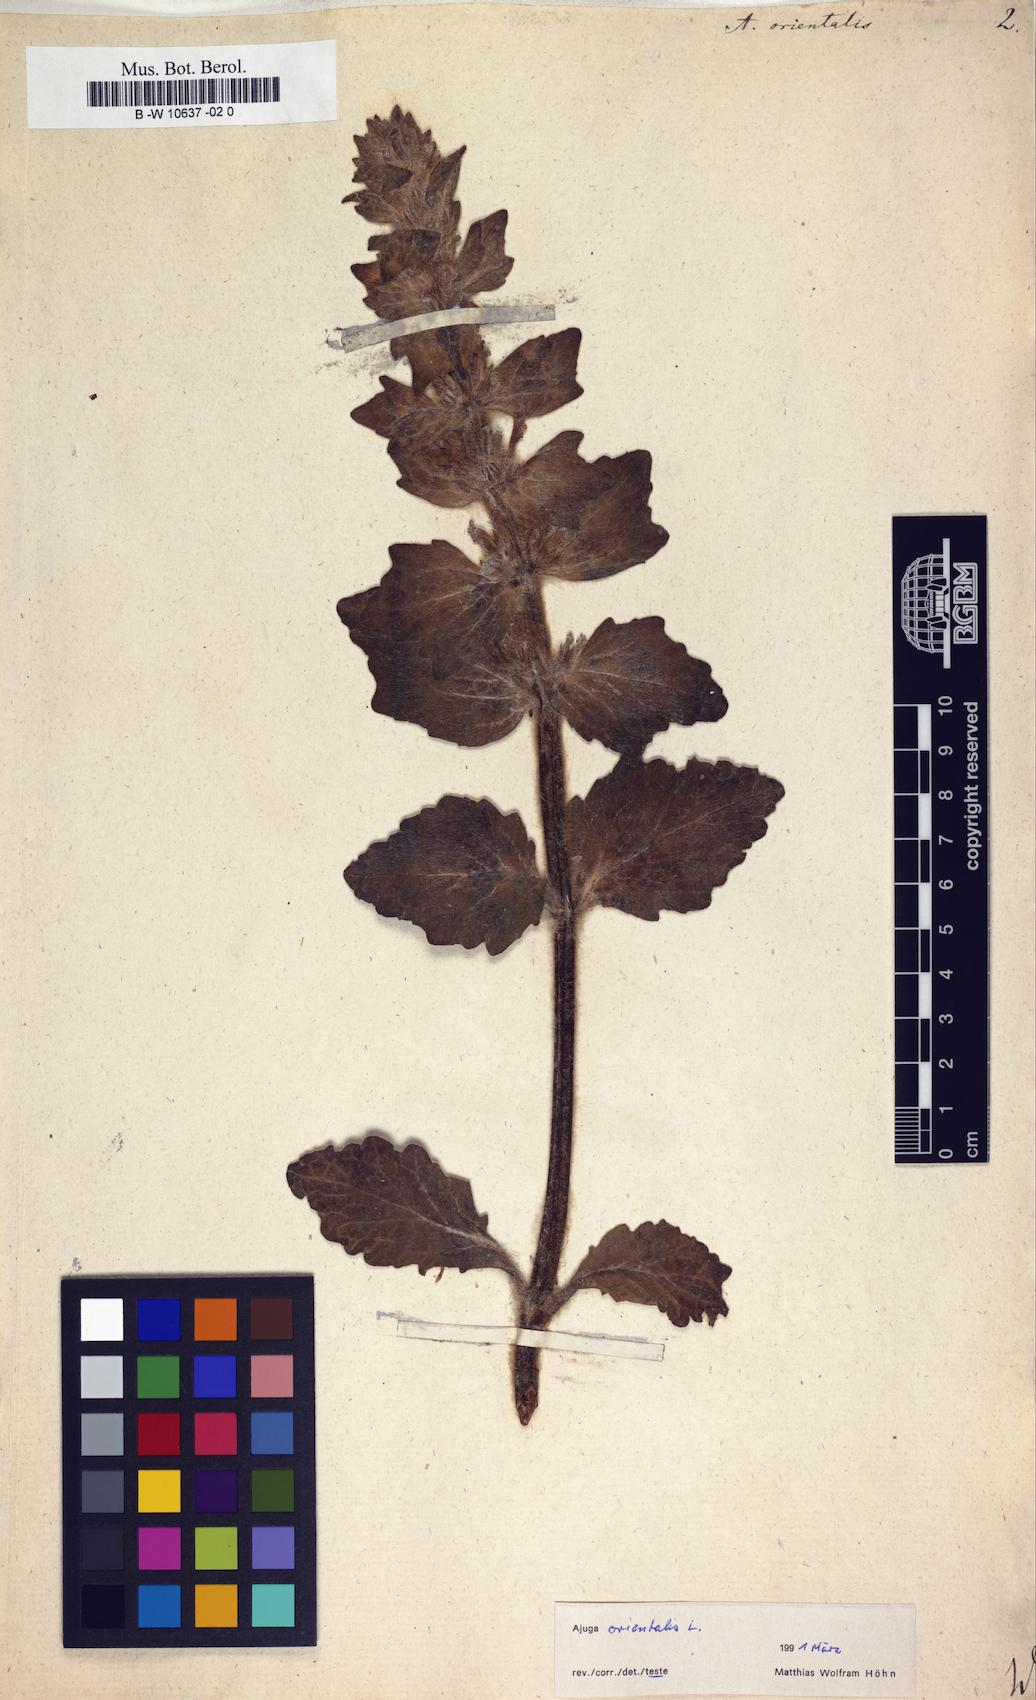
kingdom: Plantae
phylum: Tracheophyta
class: Magnoliopsida
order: Lamiales
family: Lamiaceae
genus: Ajuga
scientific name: Ajuga orientalis
